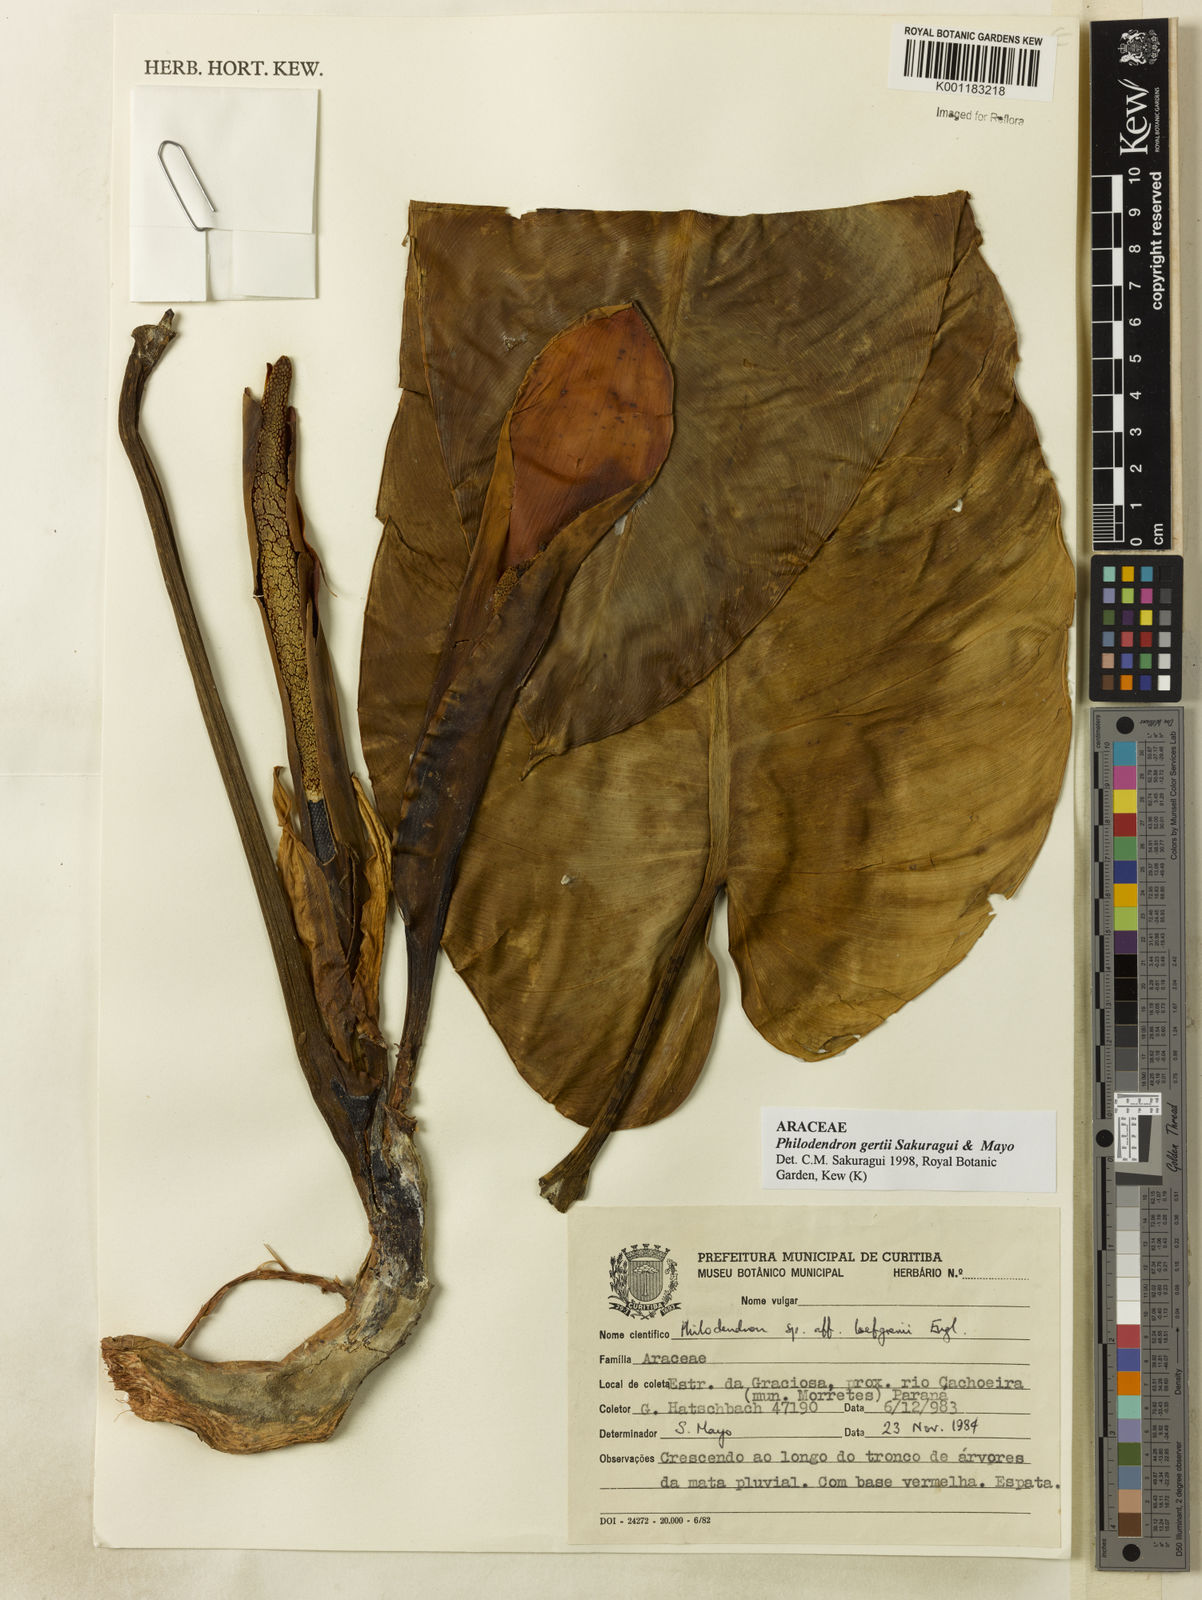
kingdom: Plantae
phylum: Tracheophyta
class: Liliopsida
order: Alismatales
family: Araceae
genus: Philodendron
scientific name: Philodendron
